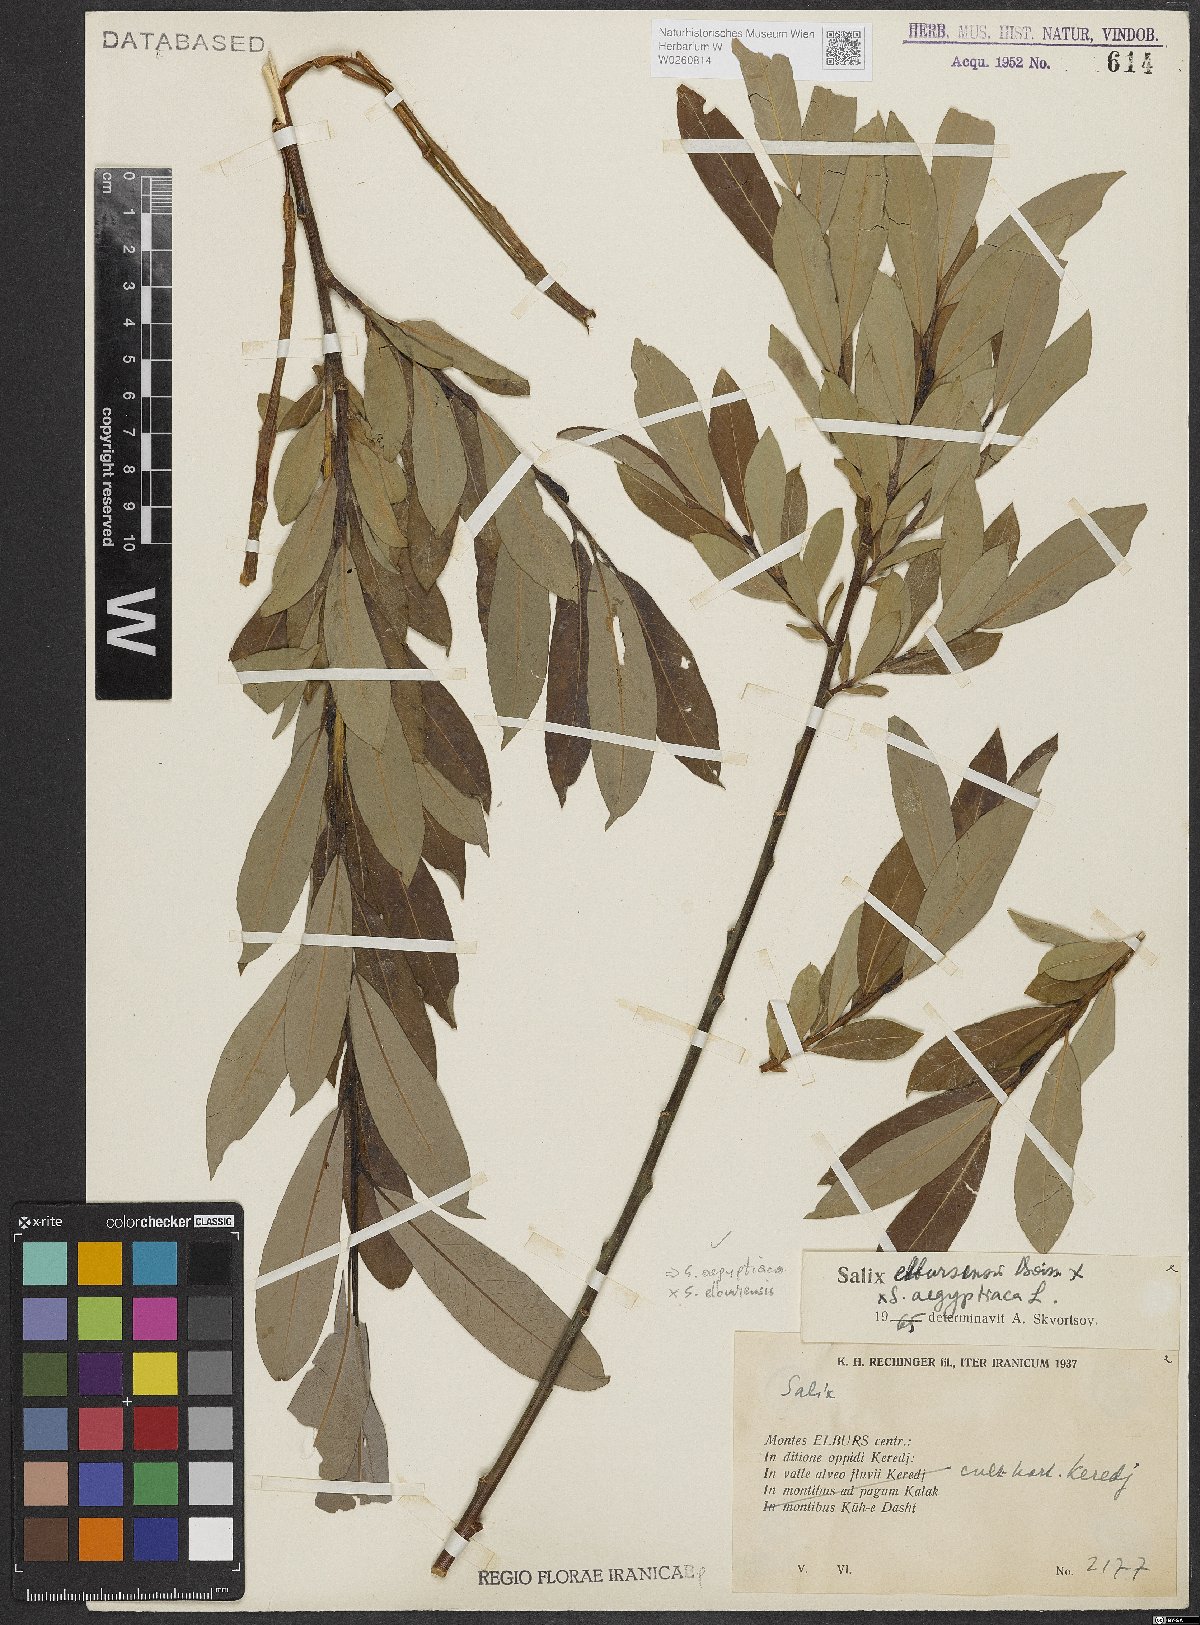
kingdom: Plantae
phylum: Tracheophyta
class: Magnoliopsida
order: Malpighiales
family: Salicaceae
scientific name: Salicaceae
